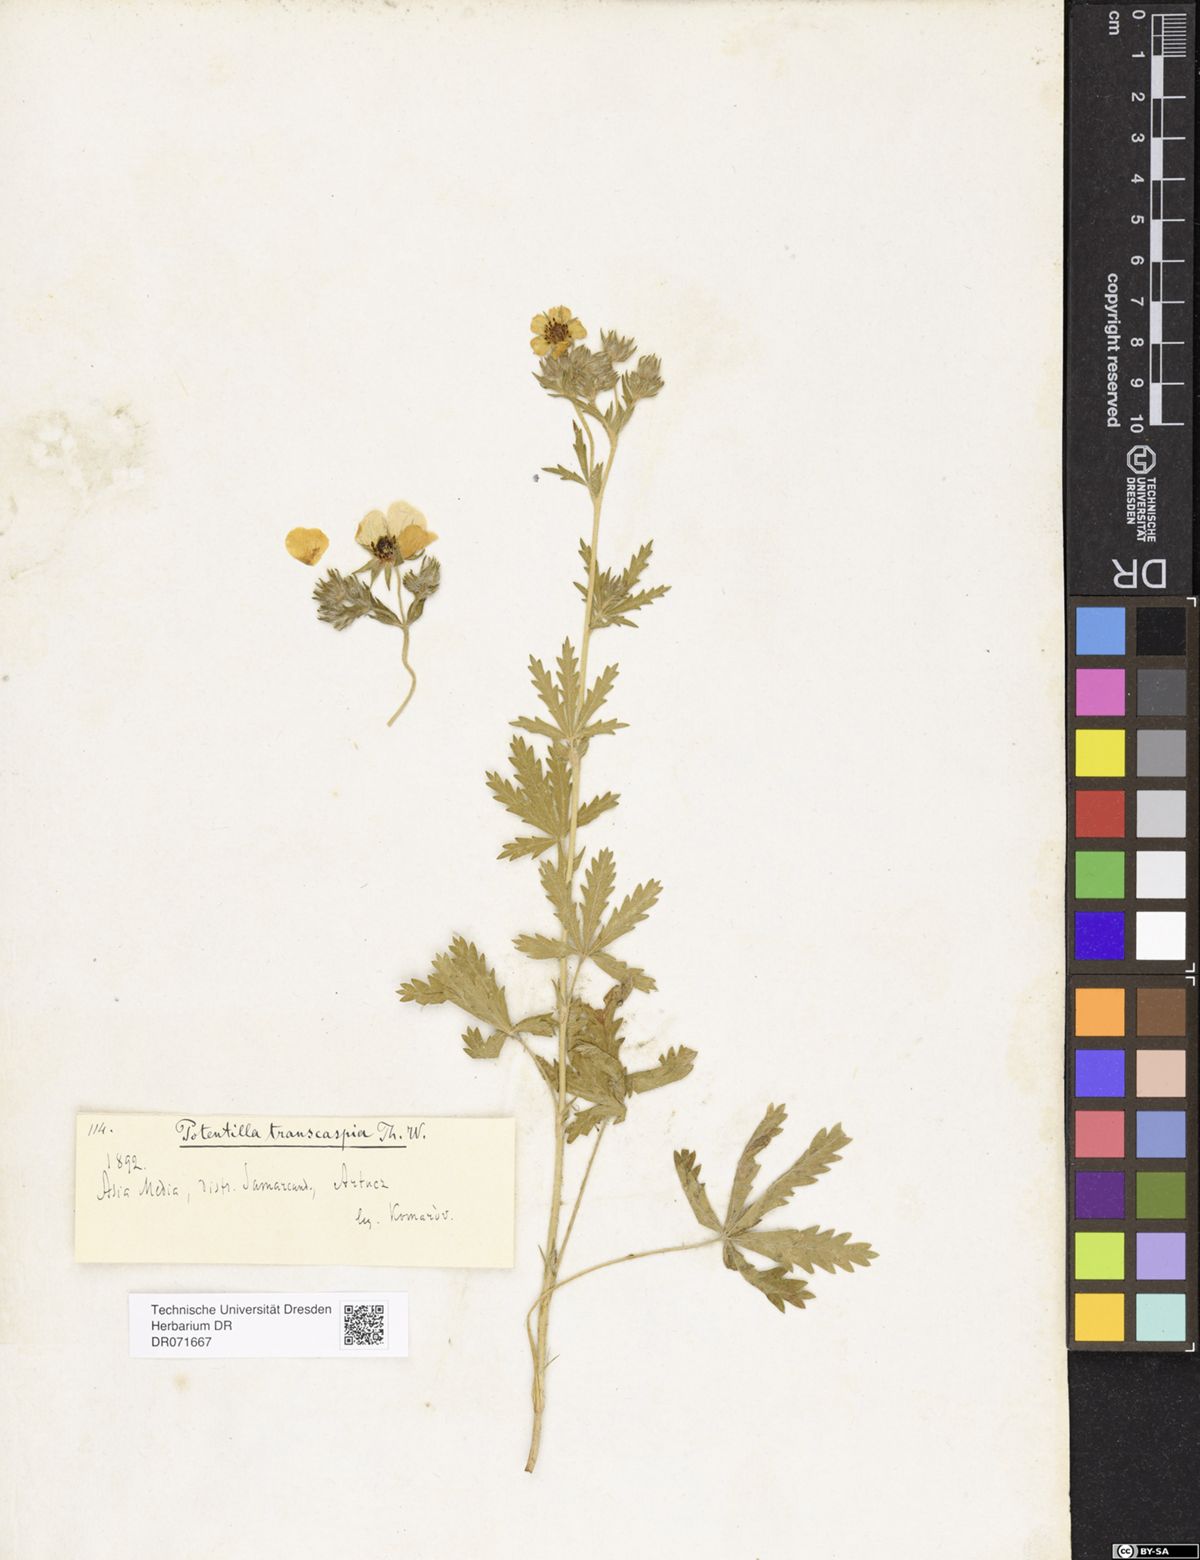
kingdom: Plantae
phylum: Tracheophyta
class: Magnoliopsida
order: Rosales
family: Rosaceae
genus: Potentilla
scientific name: Potentilla pedata
